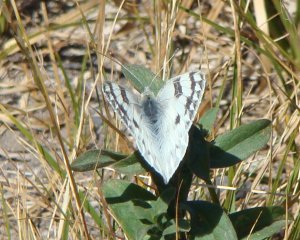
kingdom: Animalia
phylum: Arthropoda
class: Insecta
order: Lepidoptera
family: Pieridae
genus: Pontia
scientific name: Pontia occidentalis
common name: Western White
